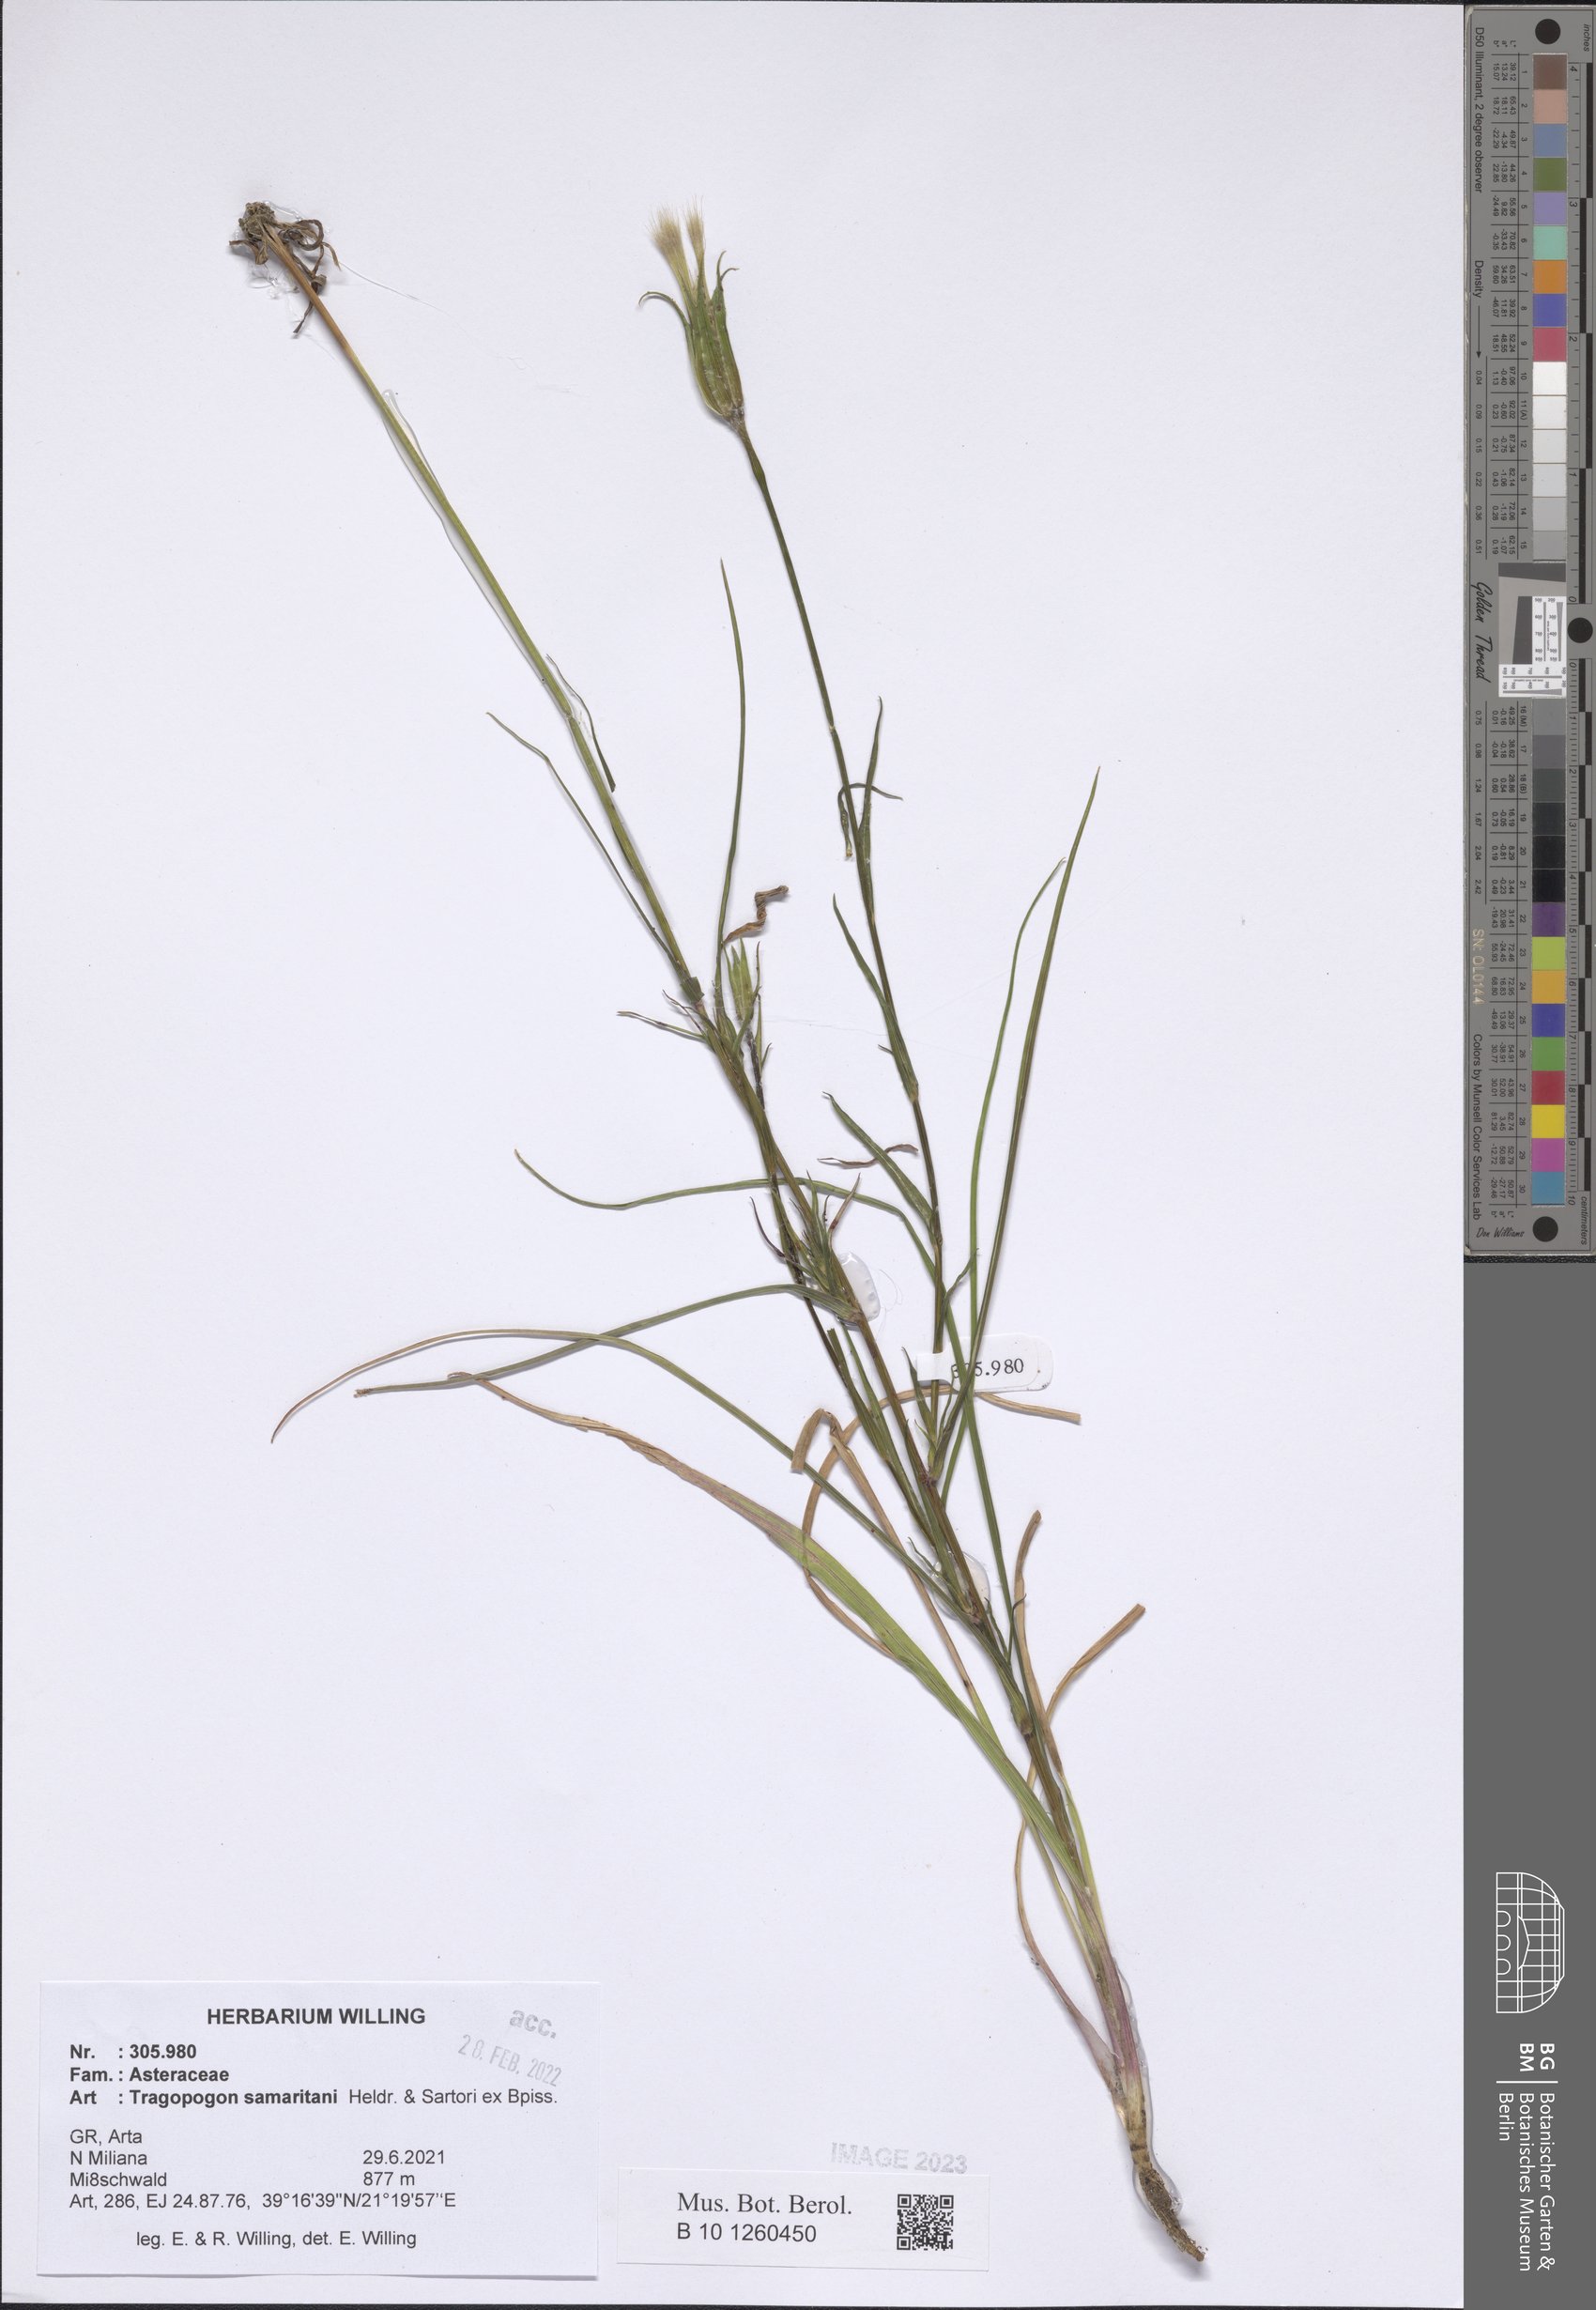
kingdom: Plantae
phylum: Tracheophyta
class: Magnoliopsida
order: Asterales
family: Asteraceae
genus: Tragopogon
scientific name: Tragopogon samaritani
